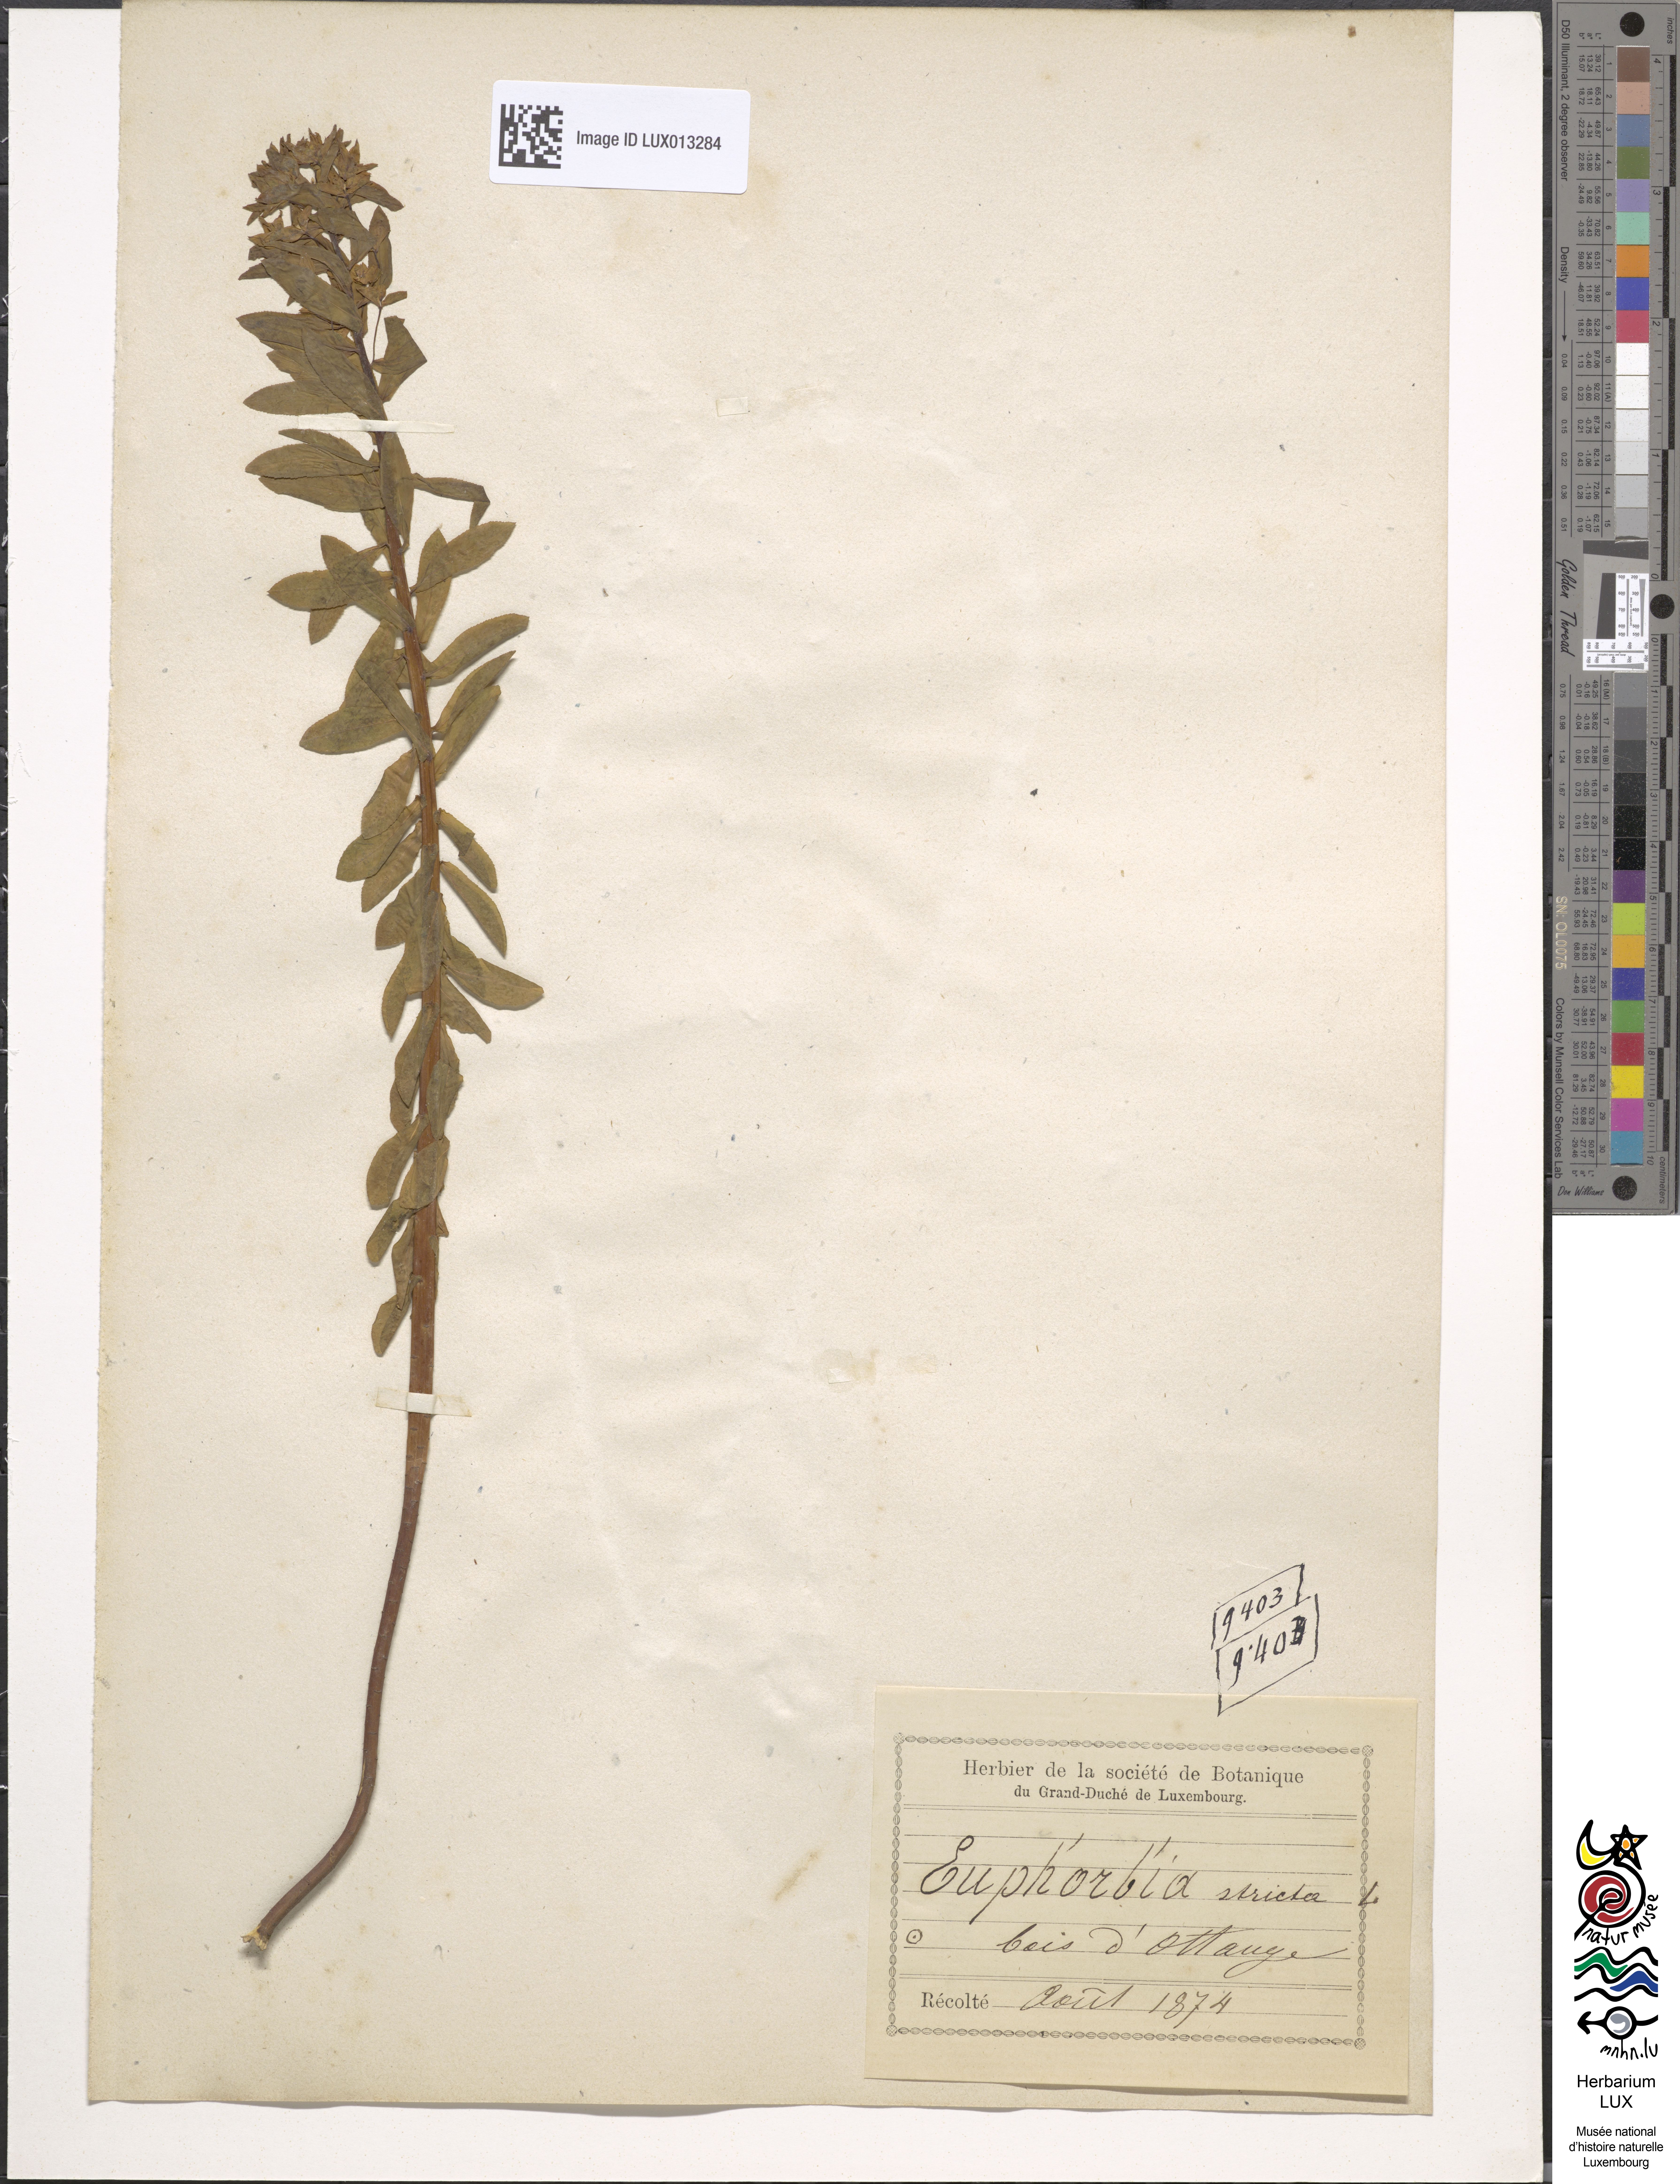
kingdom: Plantae
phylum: Tracheophyta
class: Magnoliopsida
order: Malpighiales
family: Euphorbiaceae
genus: Euphorbia
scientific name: Euphorbia stricta
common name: Upright spurge
